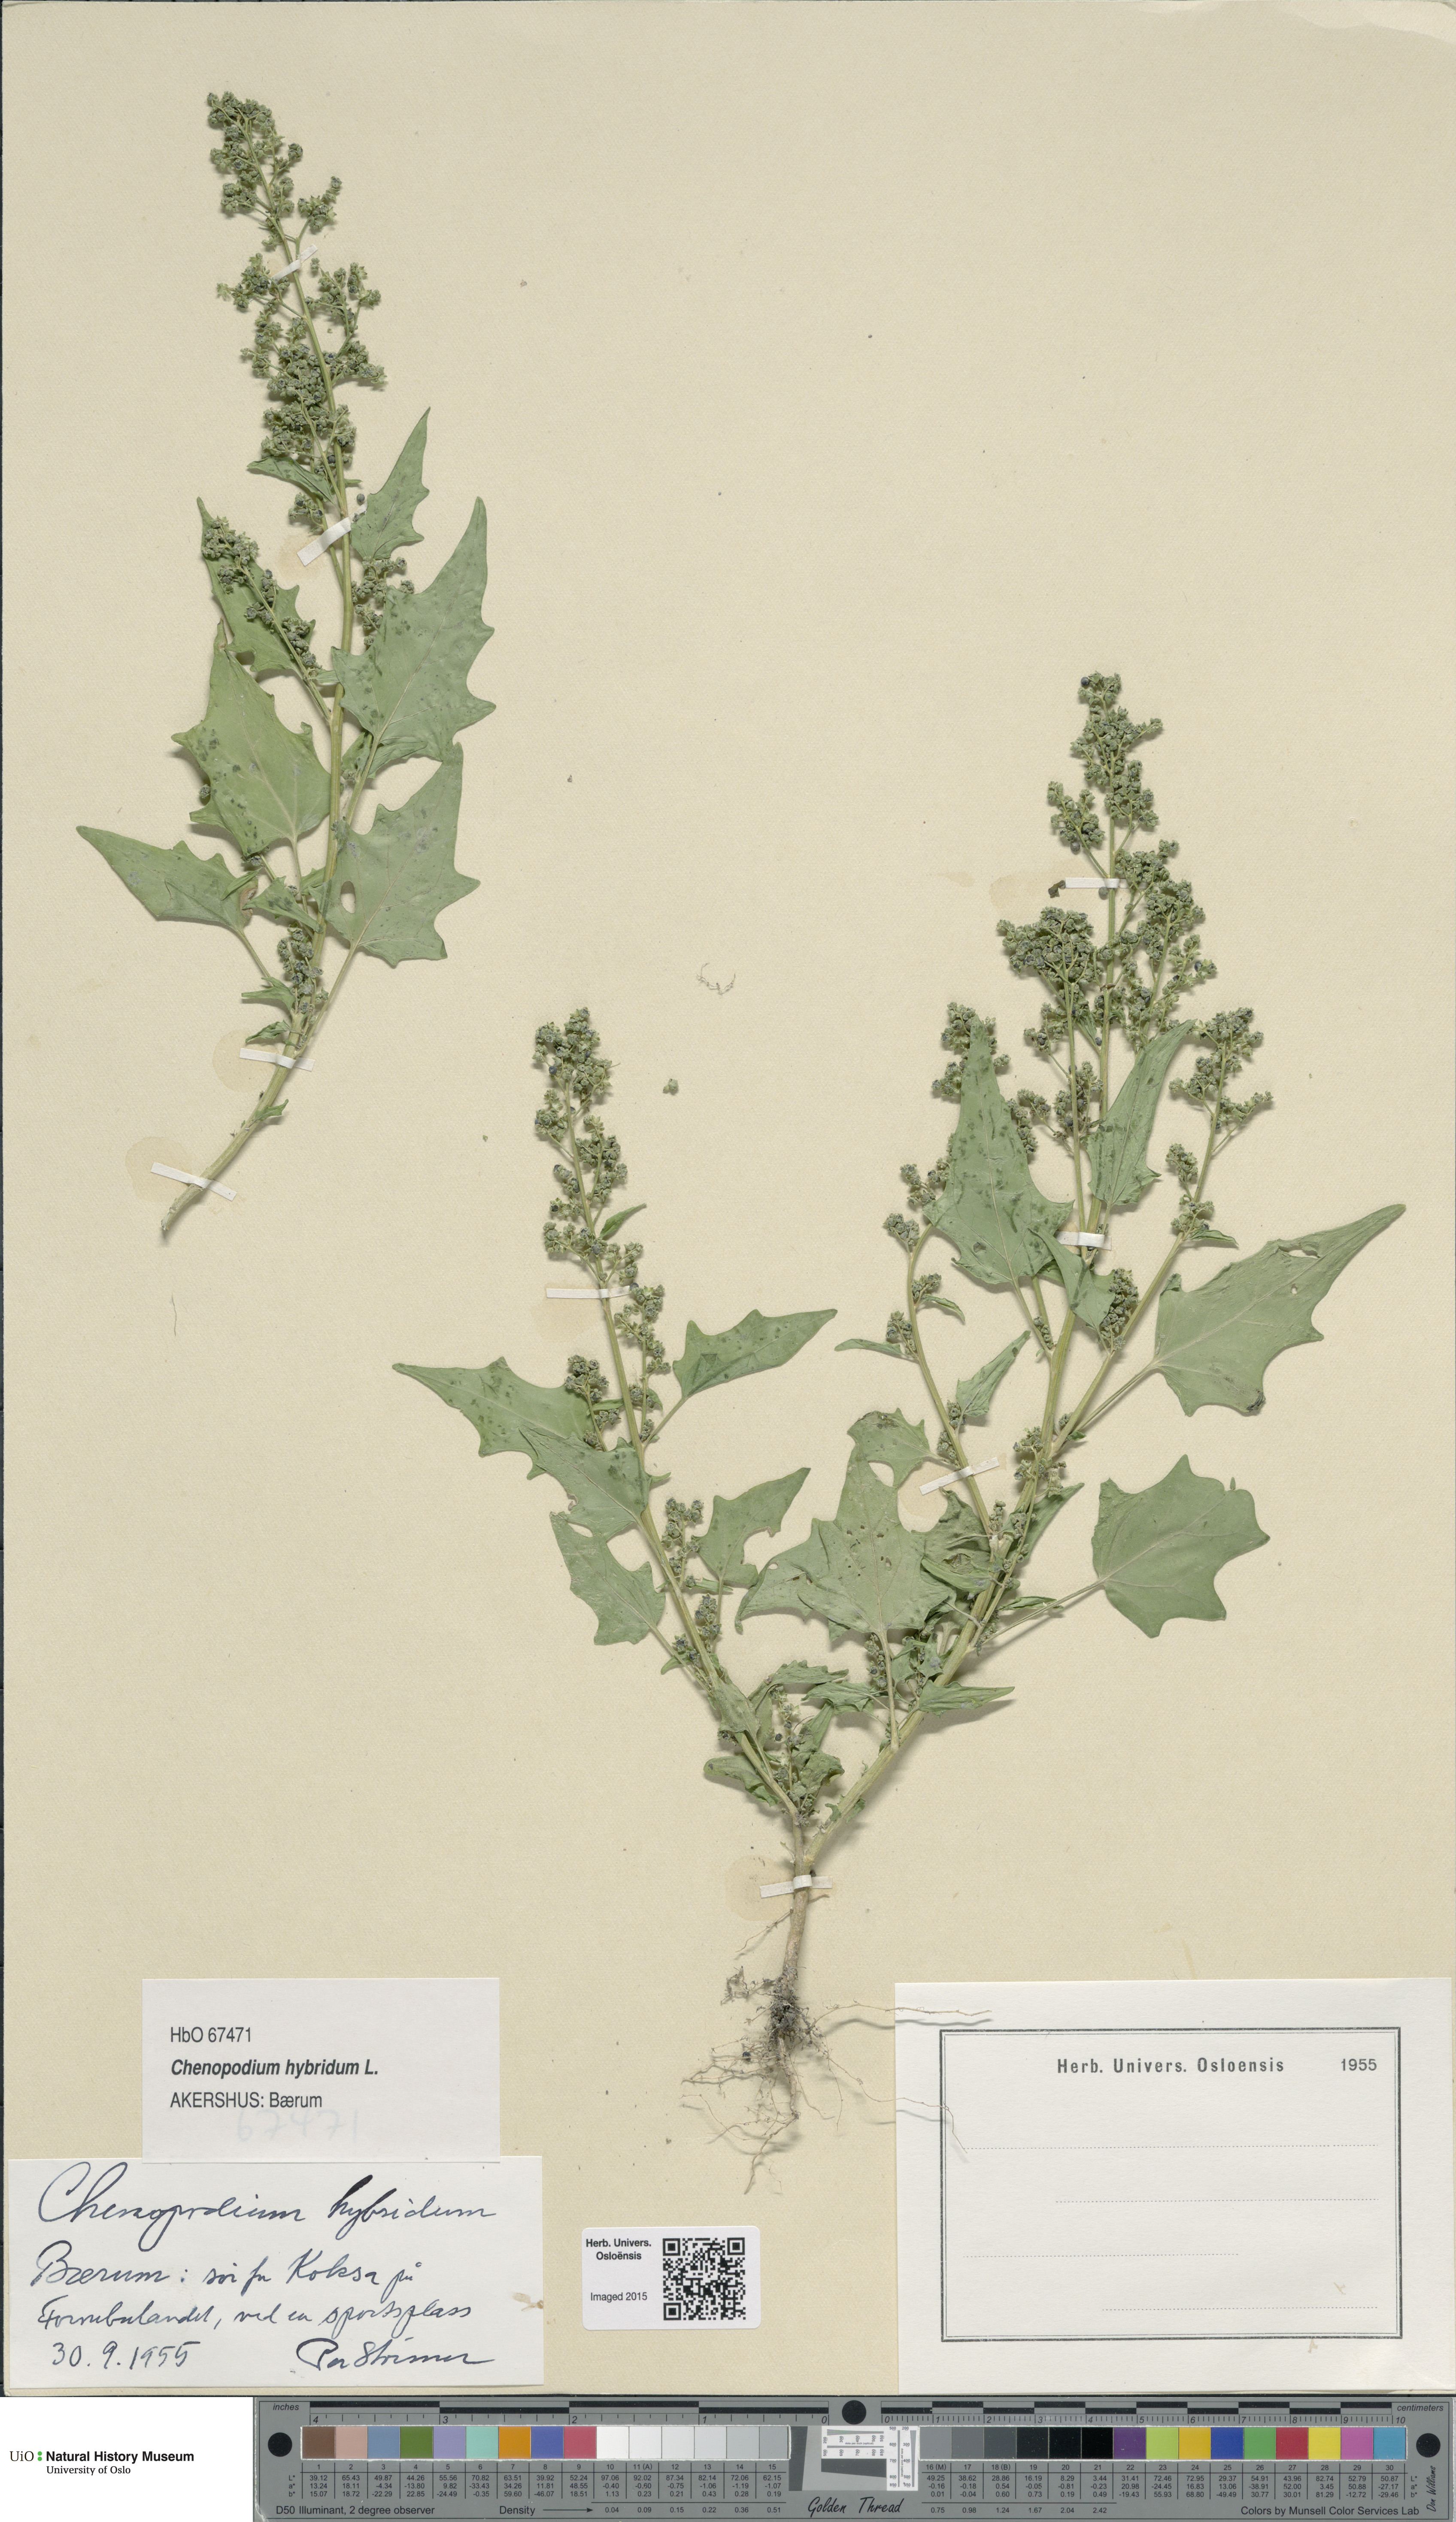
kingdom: Plantae
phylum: Tracheophyta
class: Magnoliopsida
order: Caryophyllales
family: Amaranthaceae
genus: Chenopodiastrum
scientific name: Chenopodiastrum hybridum
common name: Mapleleaf goosefoot
